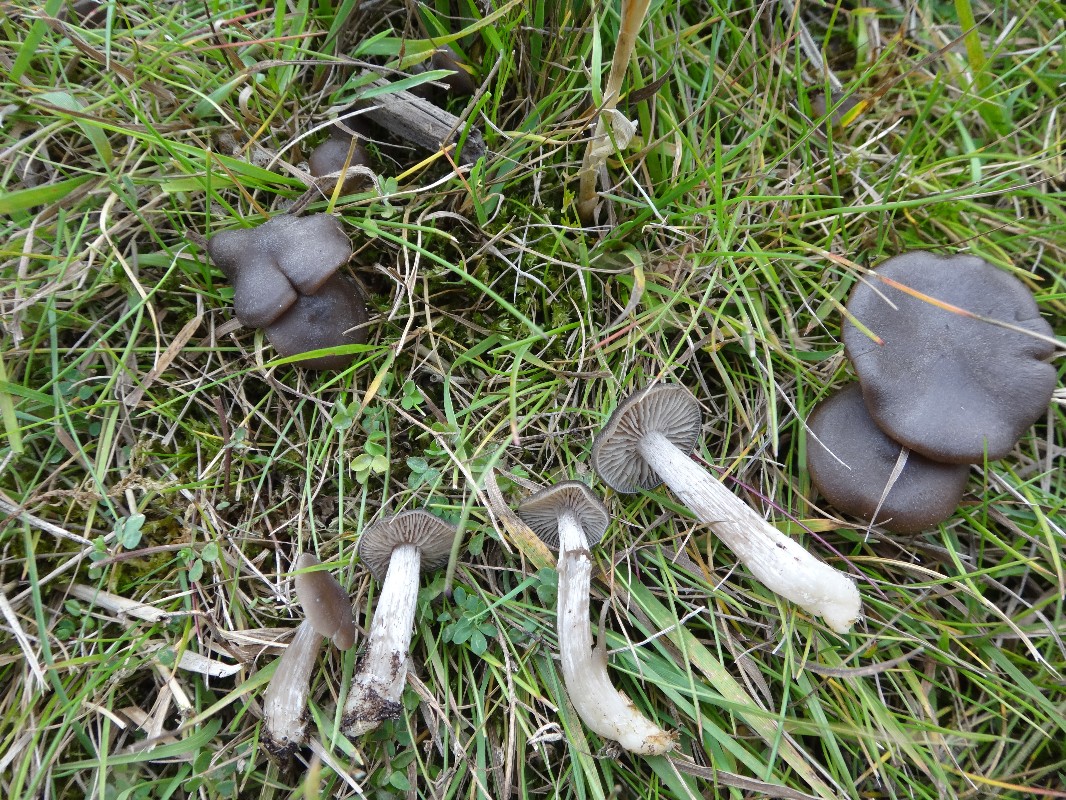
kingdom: Fungi
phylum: Basidiomycota
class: Agaricomycetes
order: Agaricales
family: Entolomataceae
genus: Entoloma
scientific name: Entoloma
